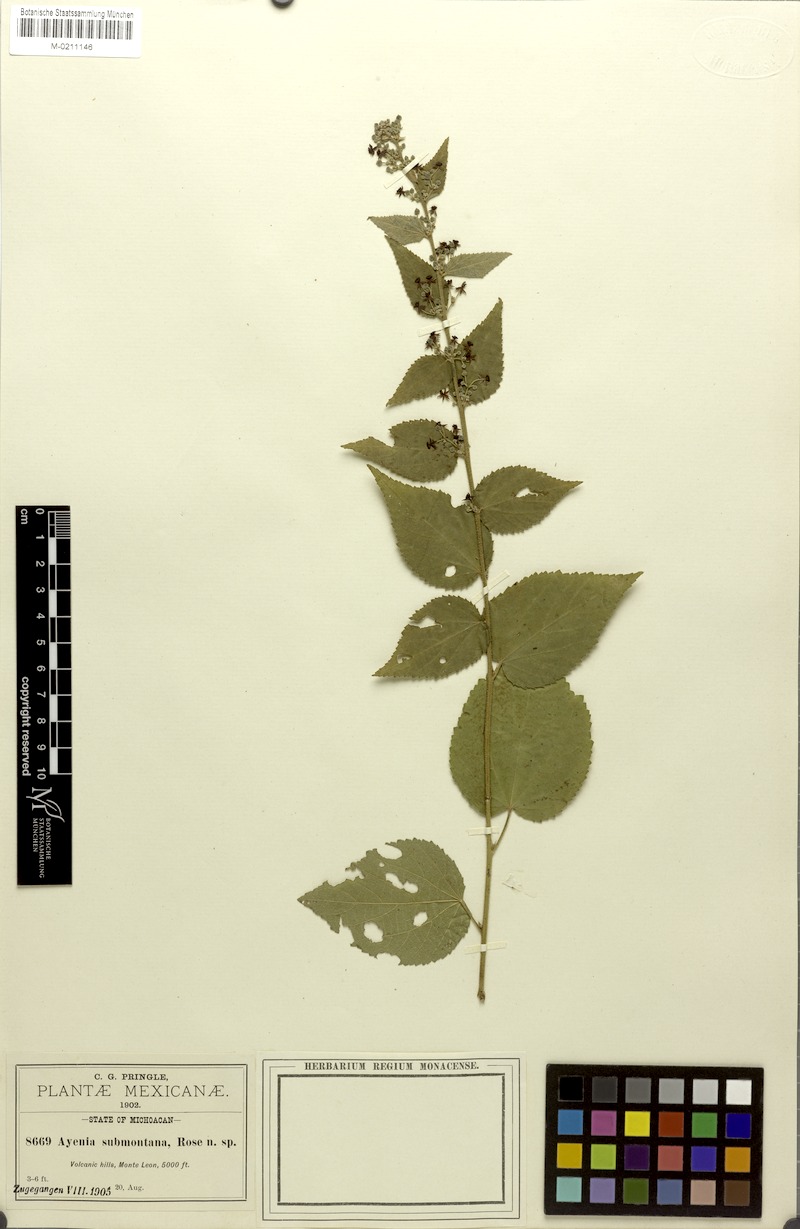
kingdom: Plantae
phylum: Tracheophyta
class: Magnoliopsida
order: Malvales
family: Malvaceae
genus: Ayenia
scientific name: Ayenia purpusii
